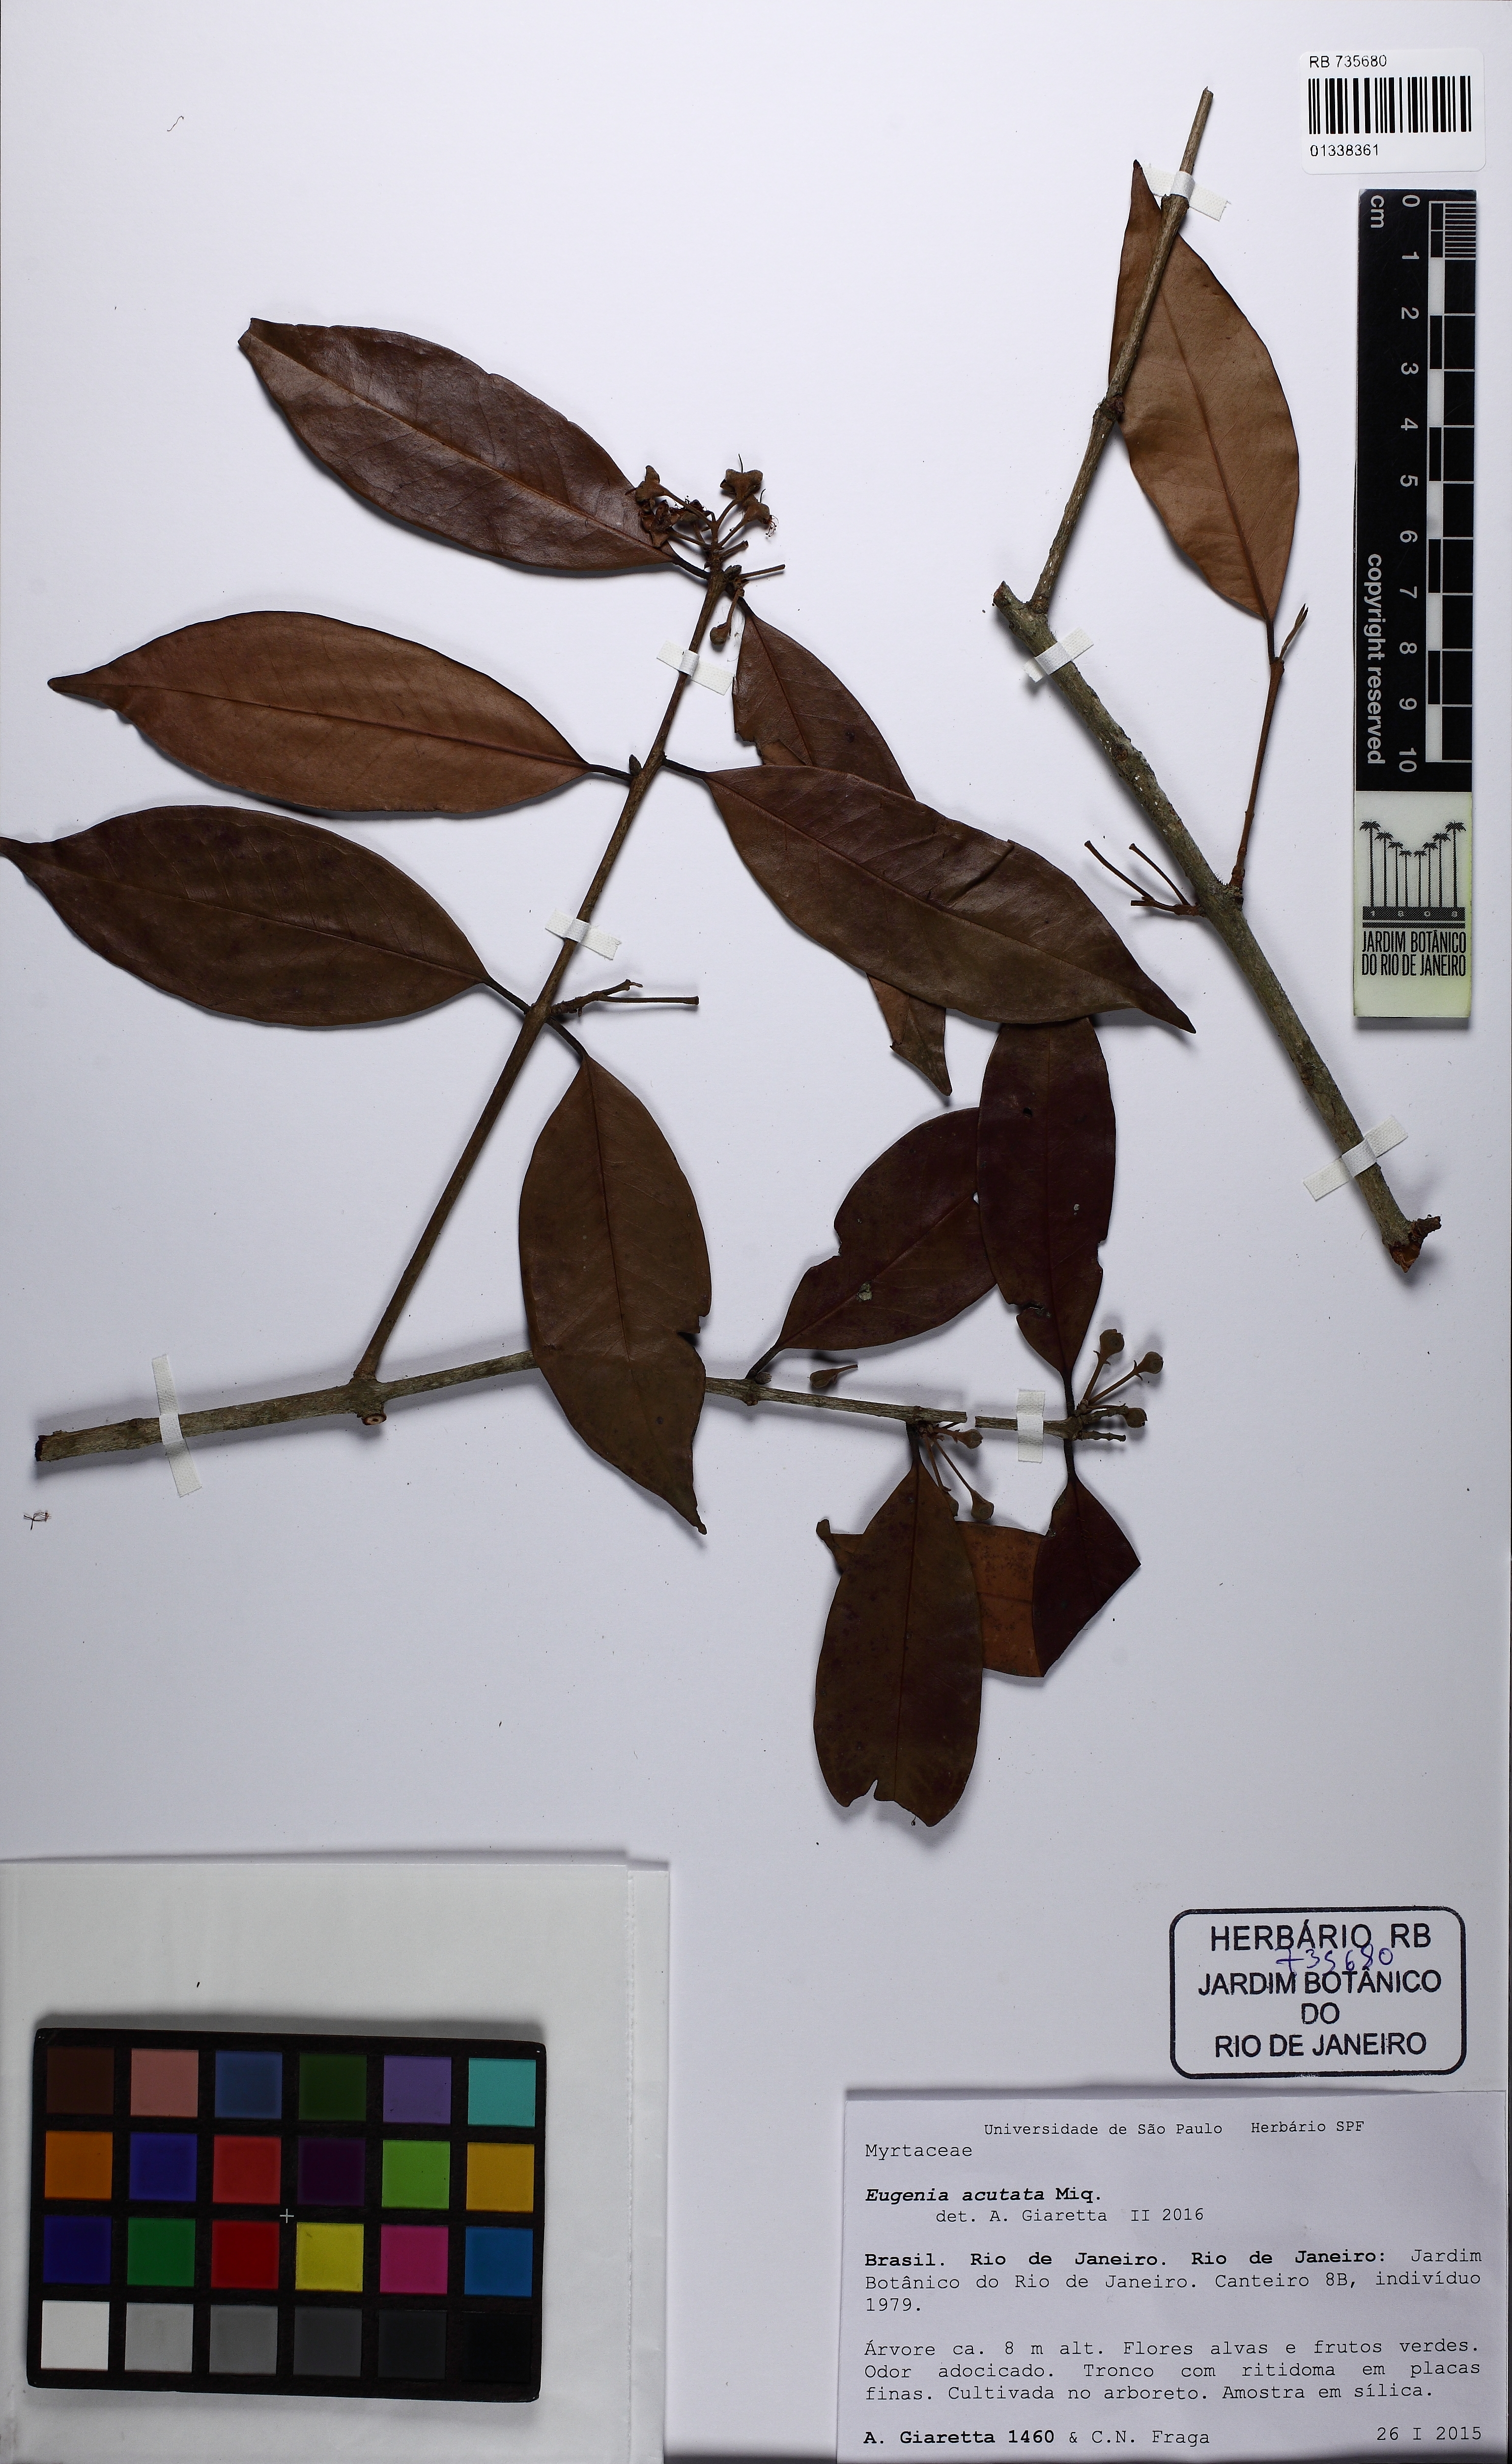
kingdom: Plantae
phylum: Tracheophyta
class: Magnoliopsida
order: Myrtales
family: Myrtaceae
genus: Calycorectes
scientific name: Calycorectes acutatus
